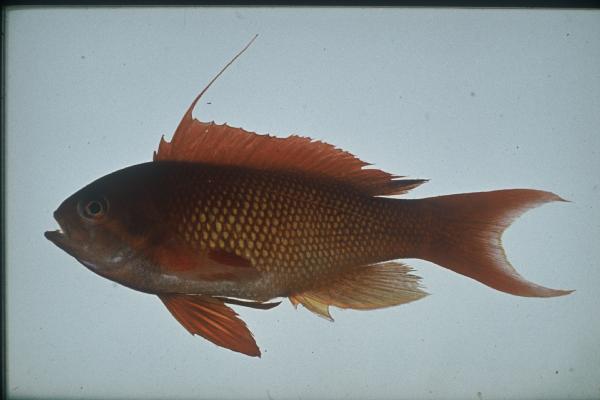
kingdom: Animalia
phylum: Chordata
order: Perciformes
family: Serranidae
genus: Pseudanthias
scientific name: Pseudanthias squamipinnis
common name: Scalefin anthias
